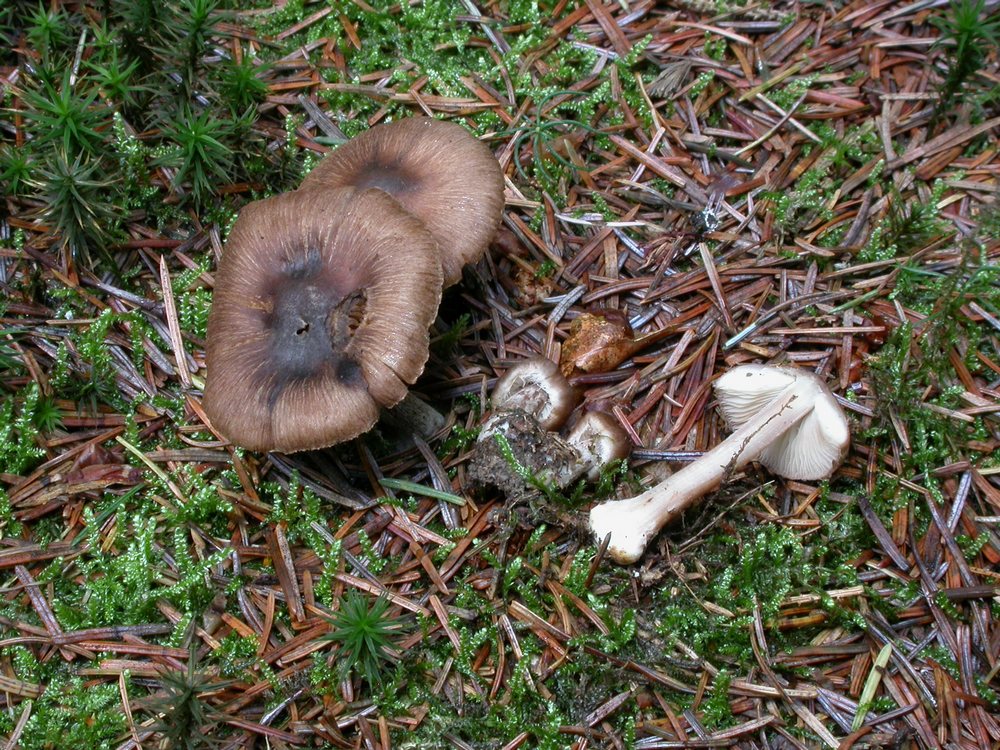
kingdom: Fungi
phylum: Basidiomycota
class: Agaricomycetes
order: Agaricales
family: Inocybaceae
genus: Inocybe
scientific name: Inocybe napipes
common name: roeknoldet trævlhat
